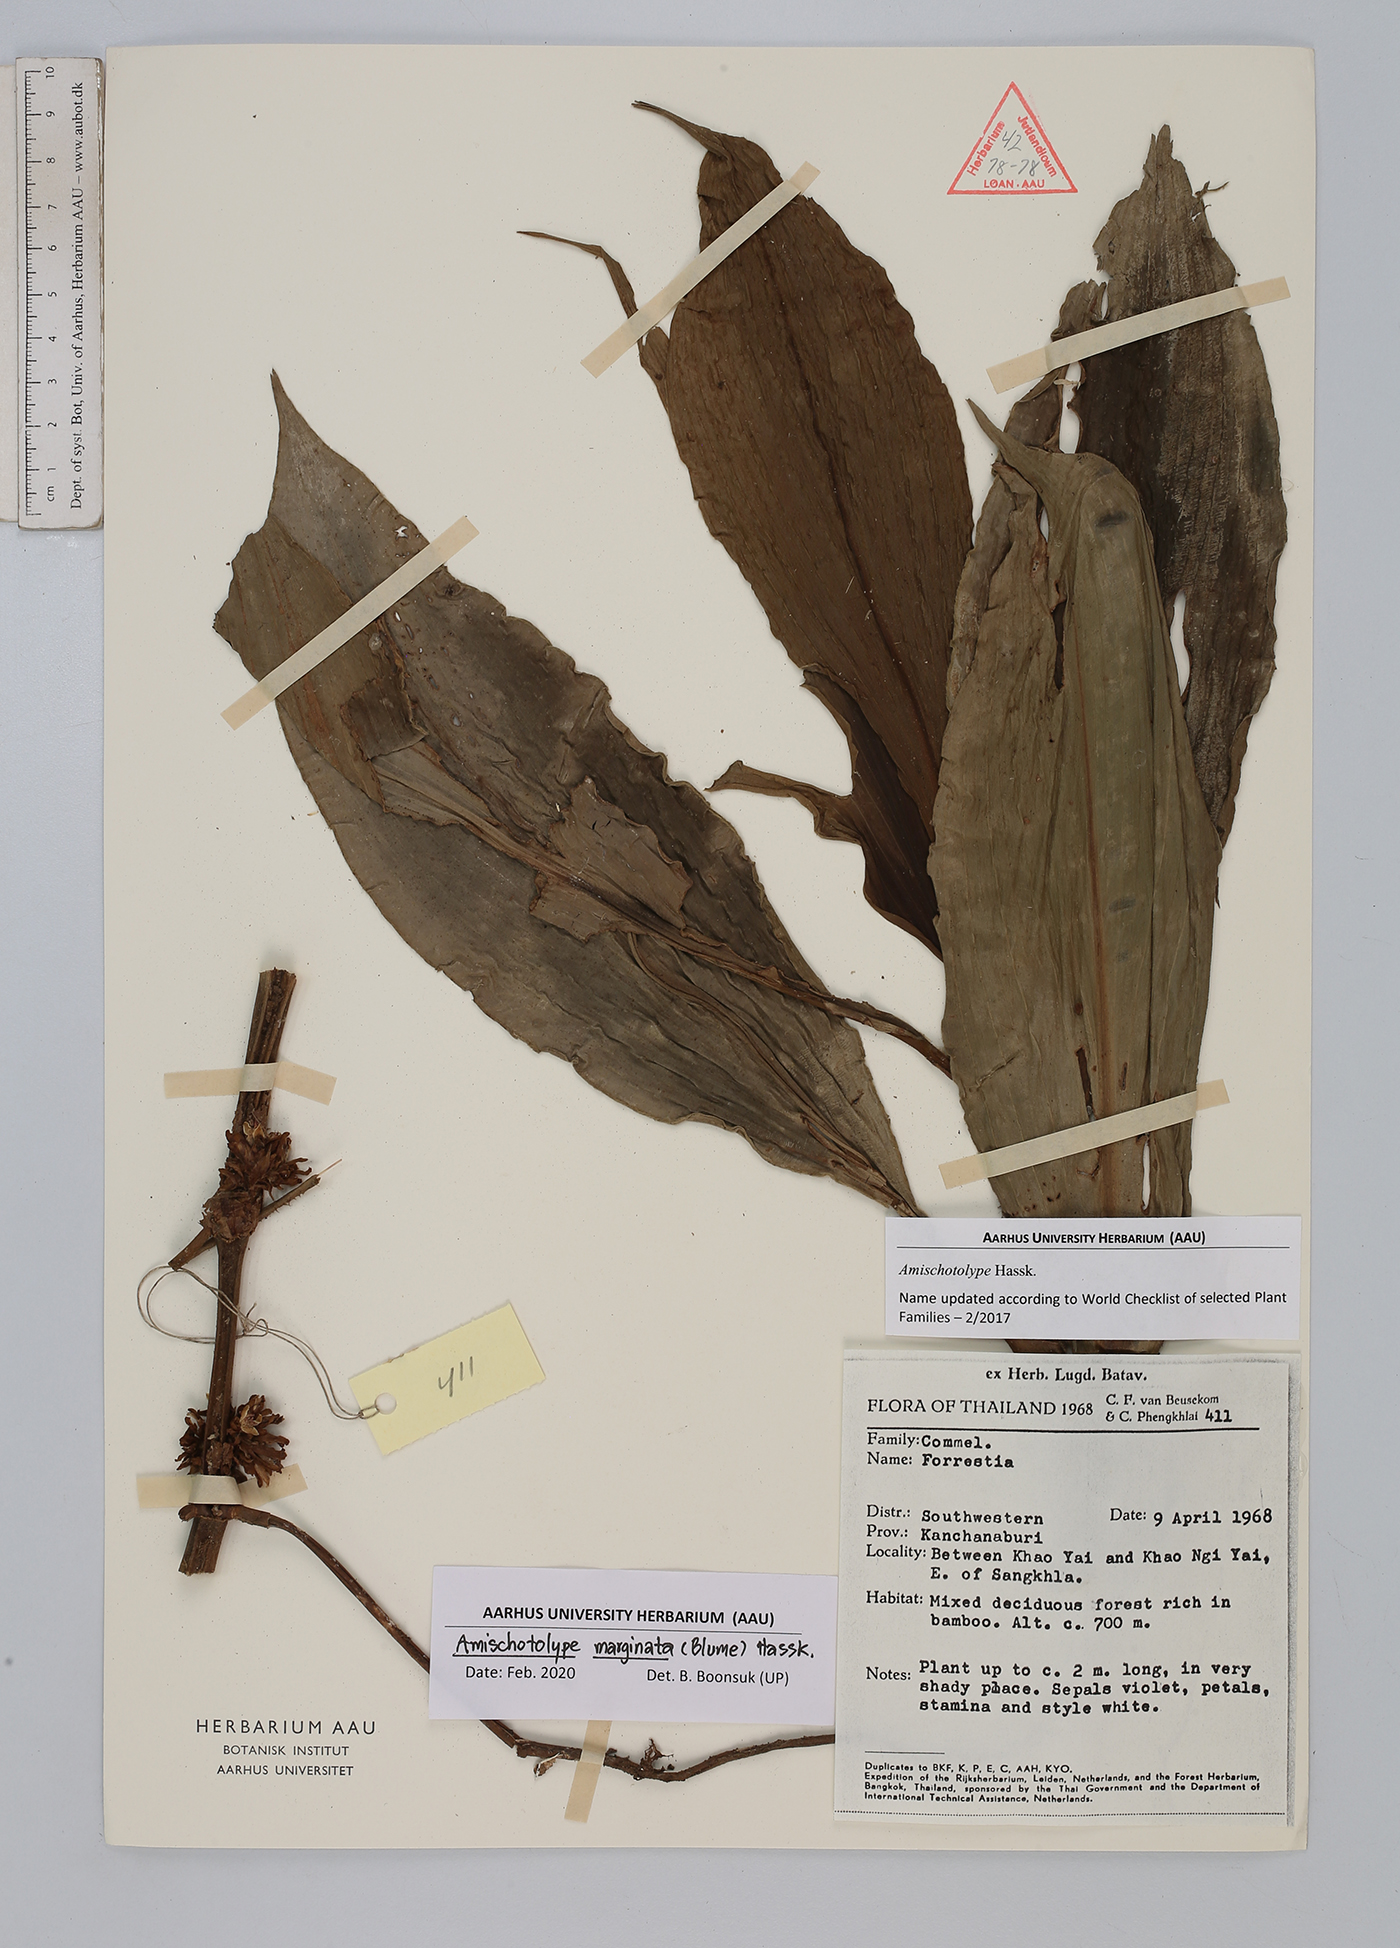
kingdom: Plantae
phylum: Tracheophyta
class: Liliopsida
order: Commelinales
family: Commelinaceae
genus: Amischotolype
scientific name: Amischotolype marginata
